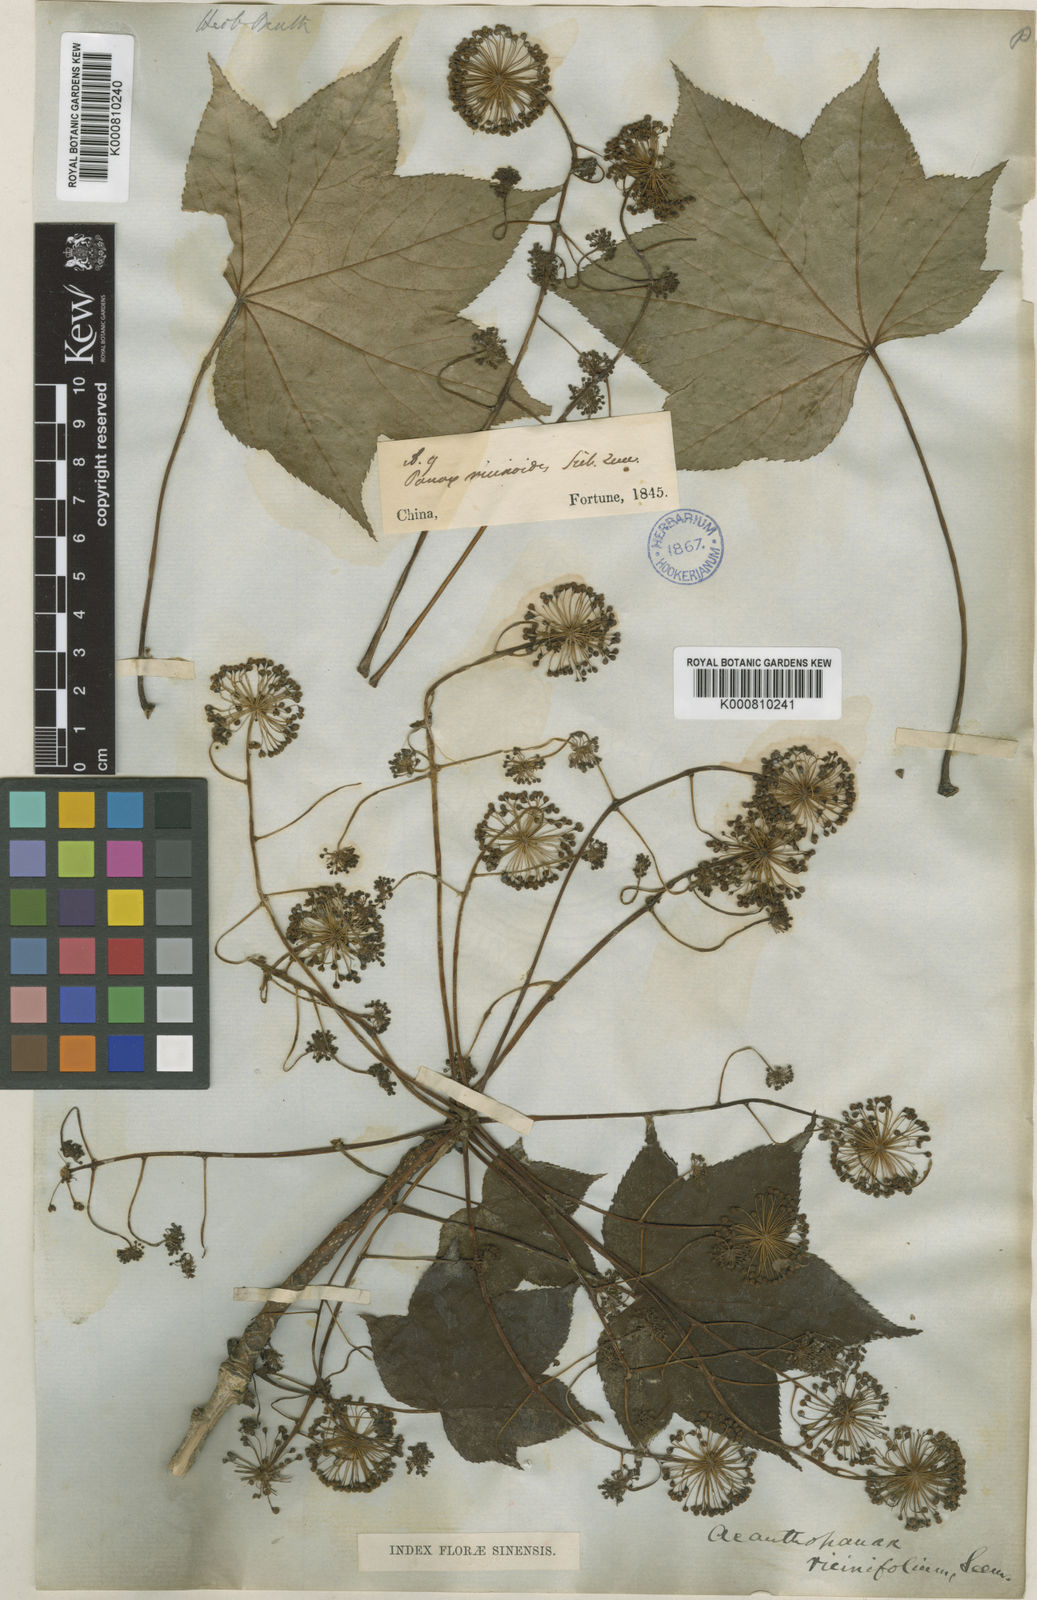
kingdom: Plantae
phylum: Tracheophyta
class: Magnoliopsida
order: Apiales
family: Araliaceae
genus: Kalopanax
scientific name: Kalopanax septemlobus
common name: Castor aralia
